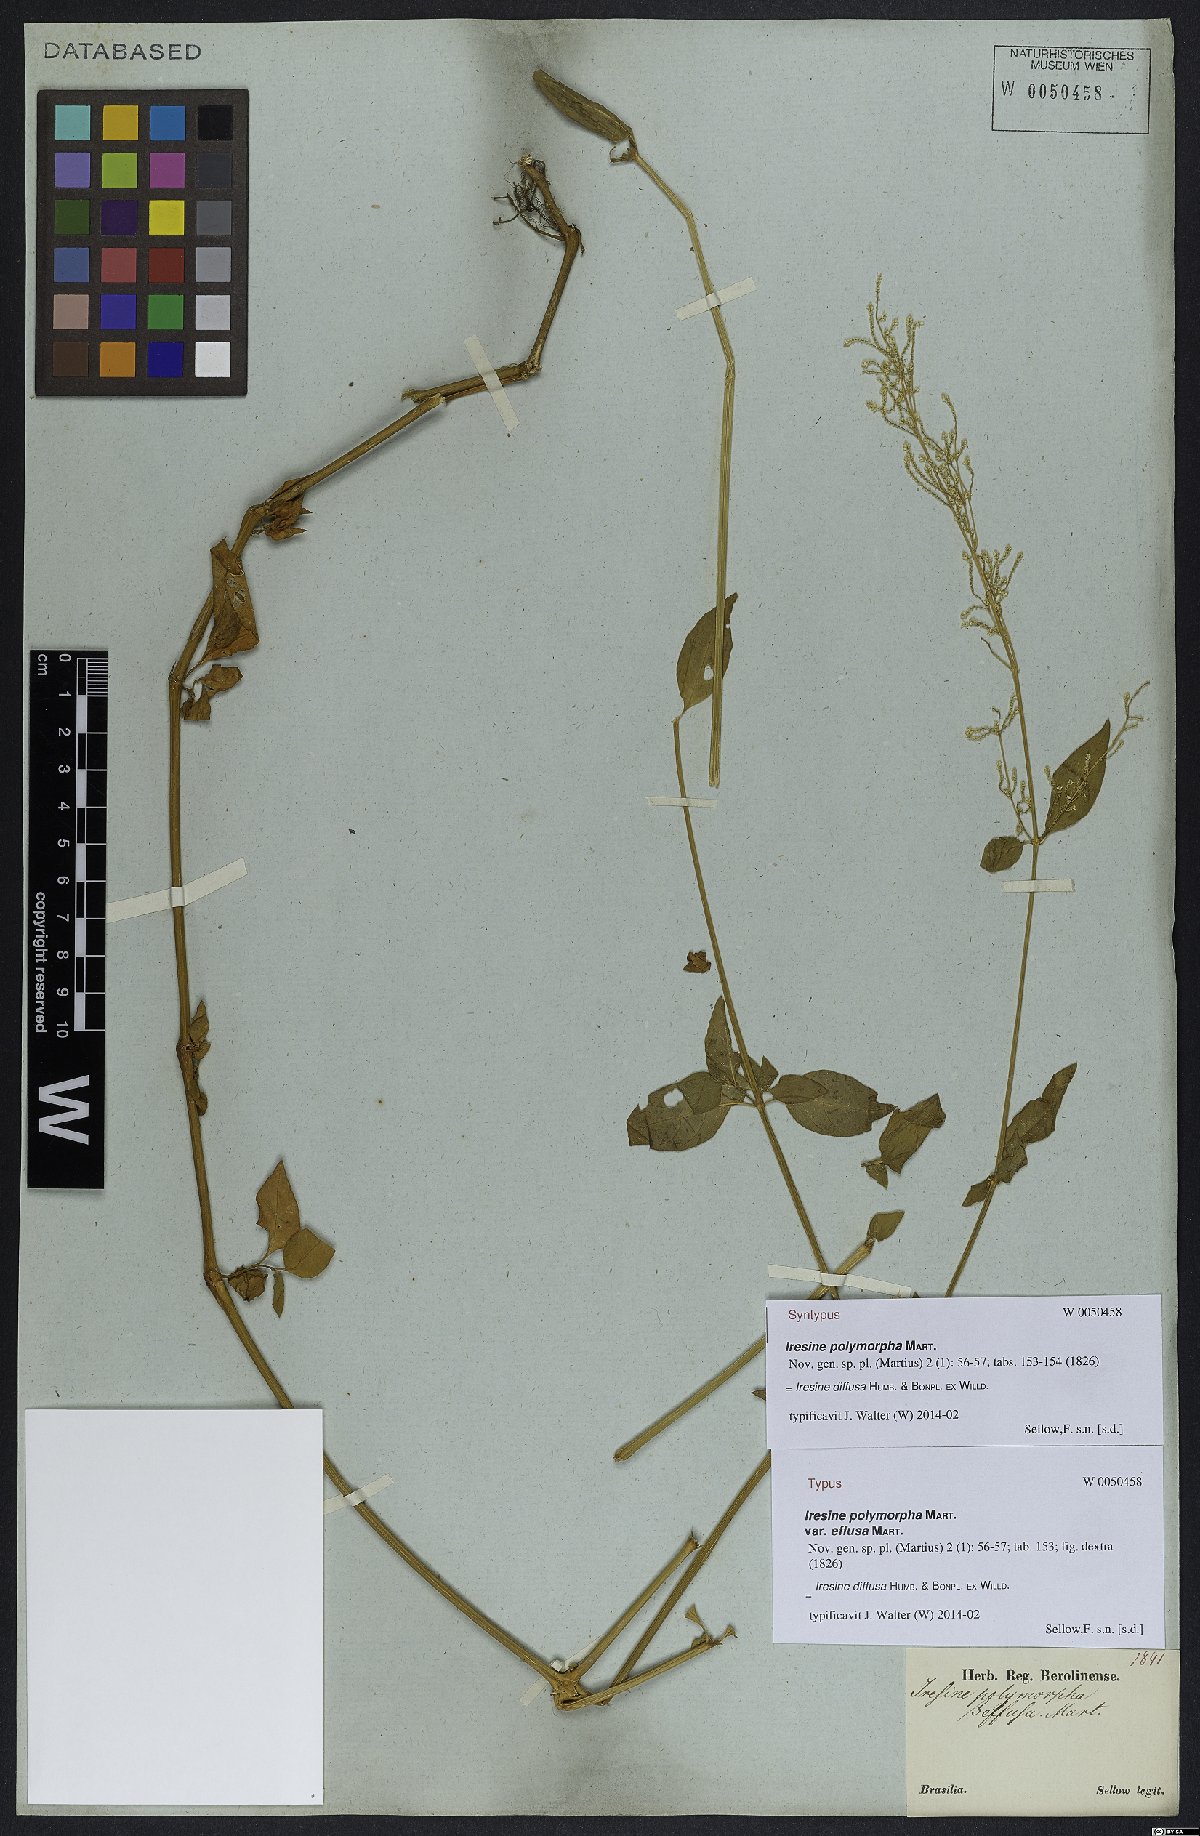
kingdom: Plantae
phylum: Tracheophyta
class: Magnoliopsida
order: Caryophyllales
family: Amaranthaceae
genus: Iresine
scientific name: Iresine diffusa
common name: Juba's-bush
